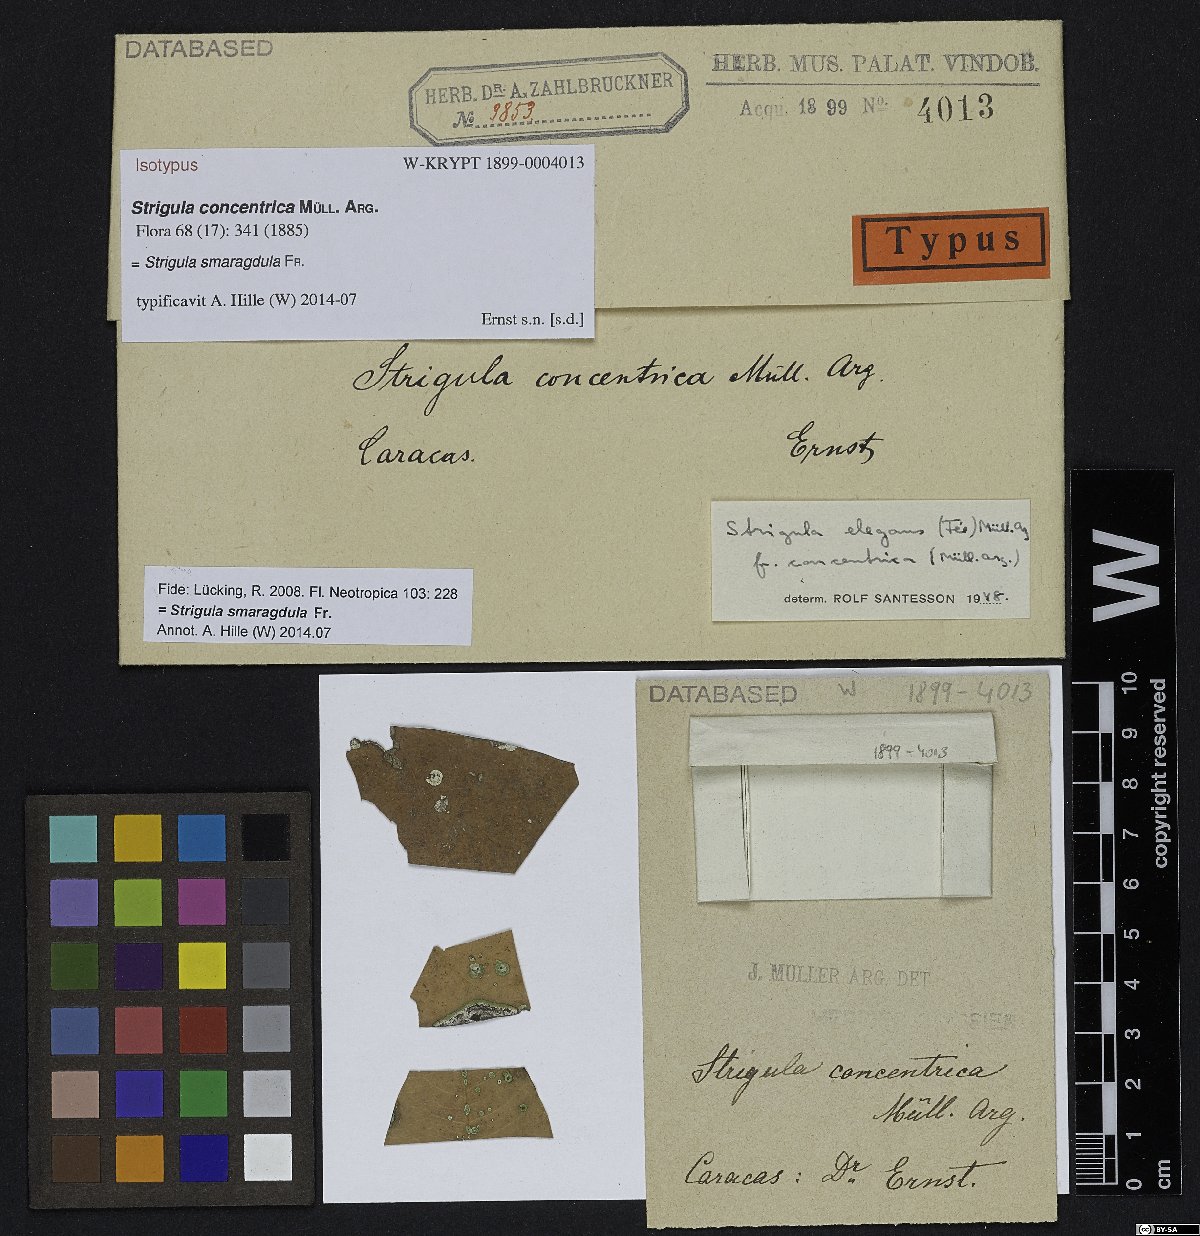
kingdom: Fungi
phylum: Ascomycota
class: Dothideomycetes
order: Strigulales
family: Strigulaceae
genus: Strigula
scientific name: Strigula
